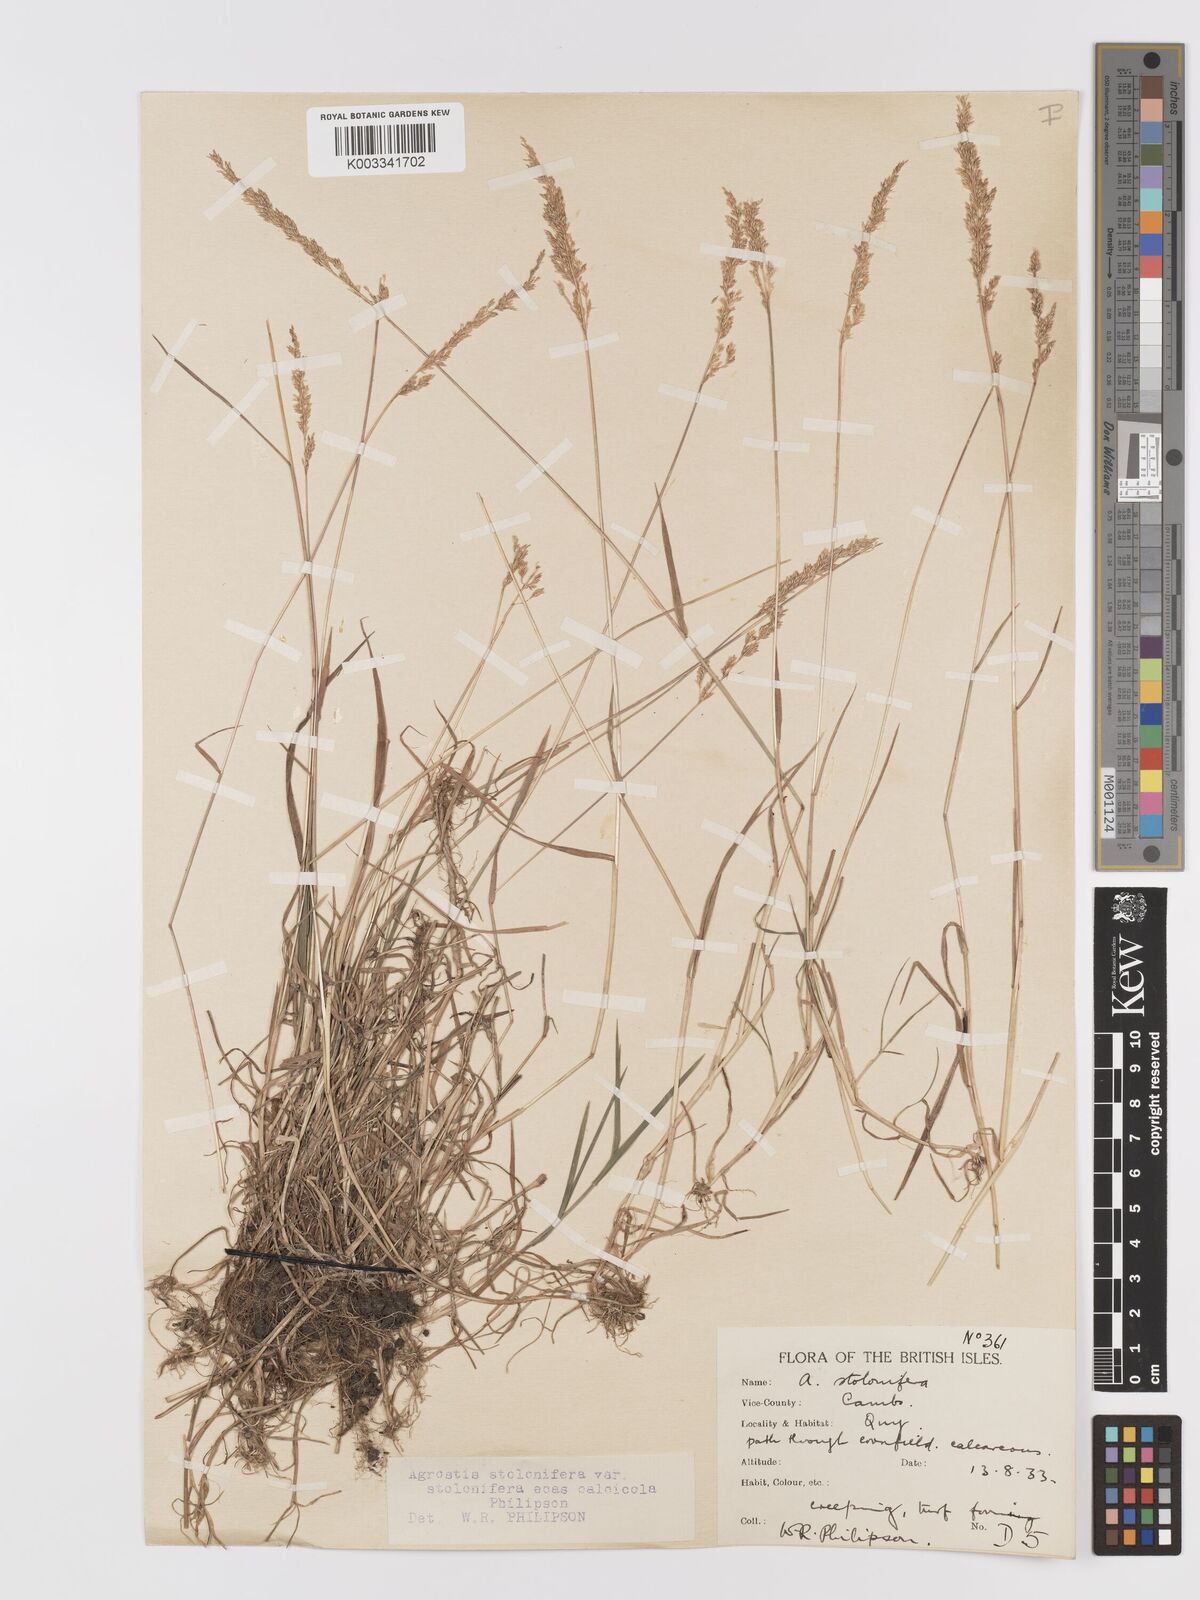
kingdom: Plantae
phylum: Tracheophyta
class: Liliopsida
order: Poales
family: Poaceae
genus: Agrostis
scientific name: Agrostis stolonifera
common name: Creeping bentgrass
